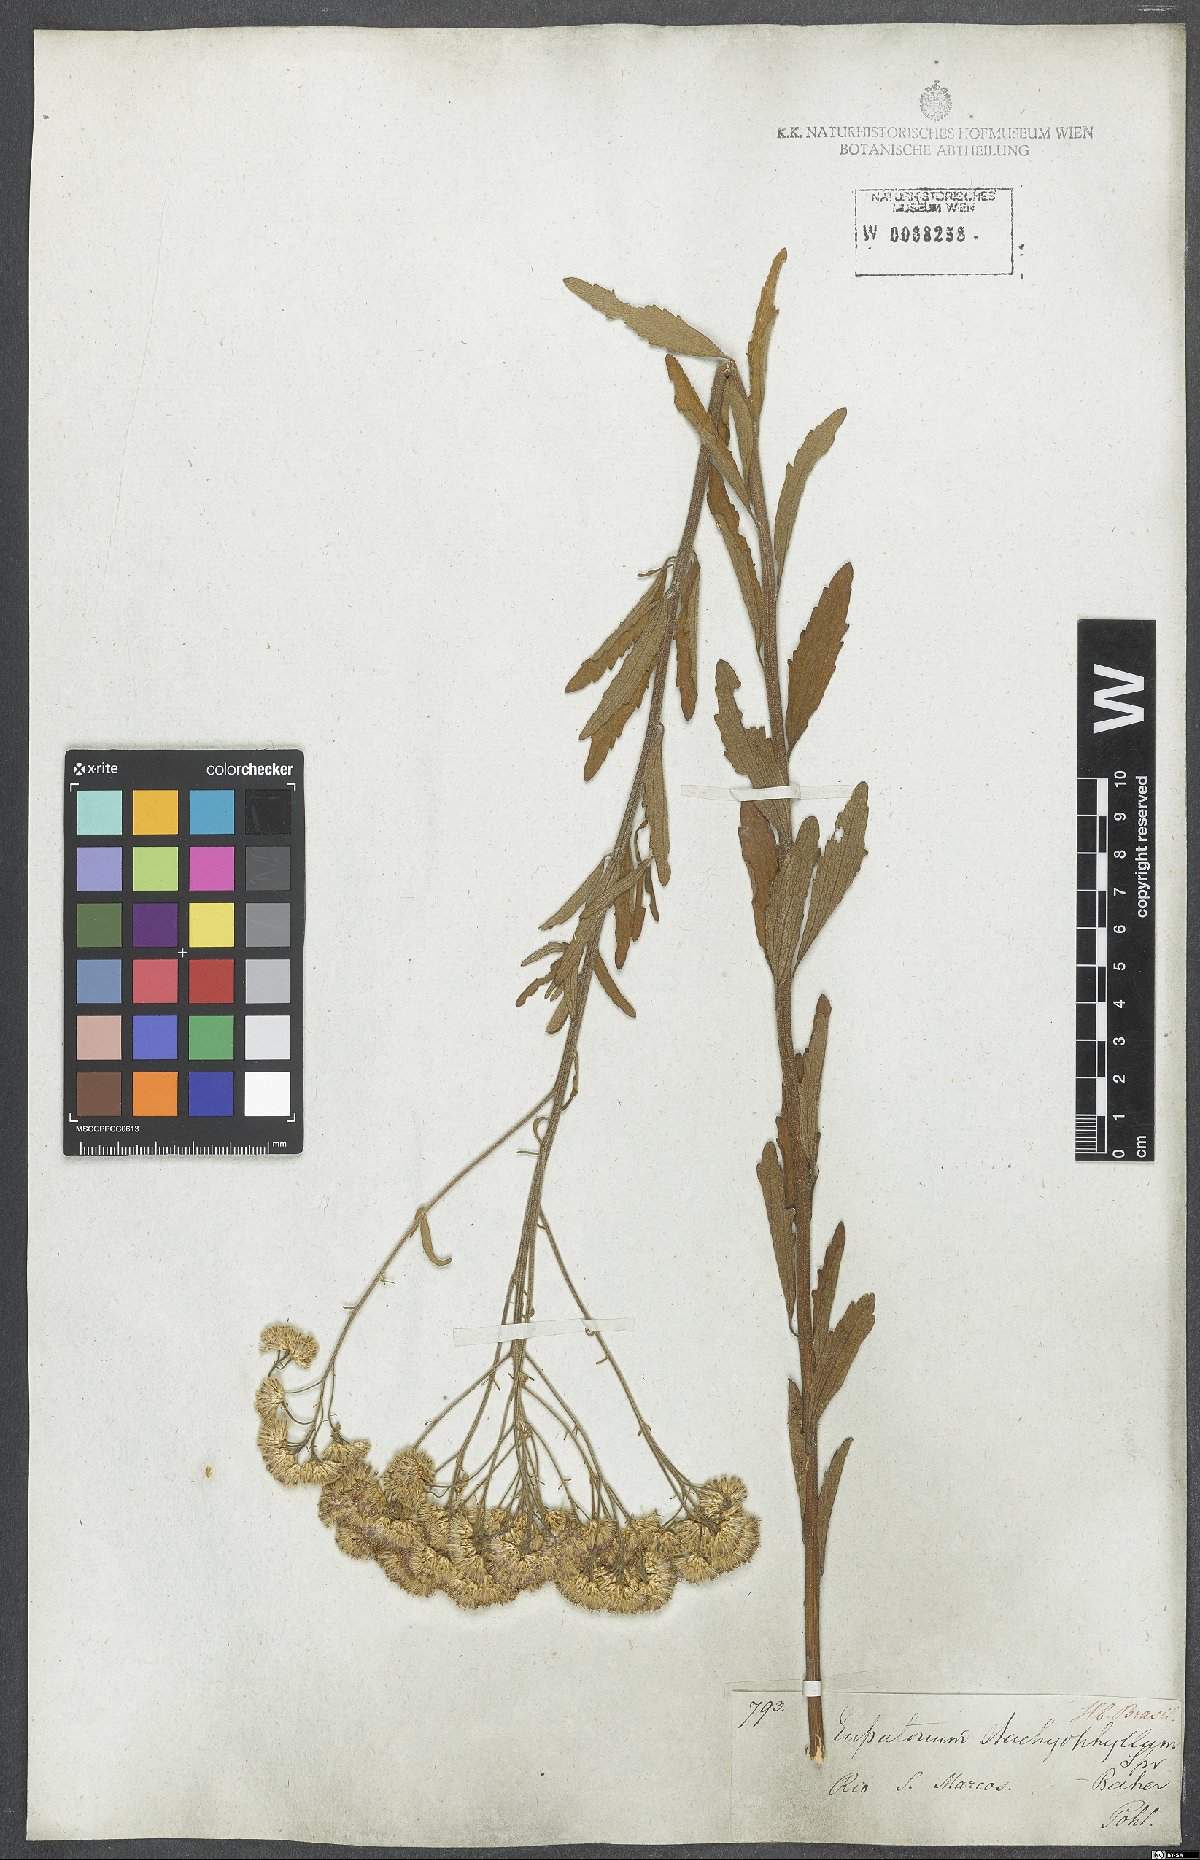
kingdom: Plantae
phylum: Tracheophyta
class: Magnoliopsida
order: Asterales
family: Asteraceae
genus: Chromolaena
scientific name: Chromolaena stachyophylla
